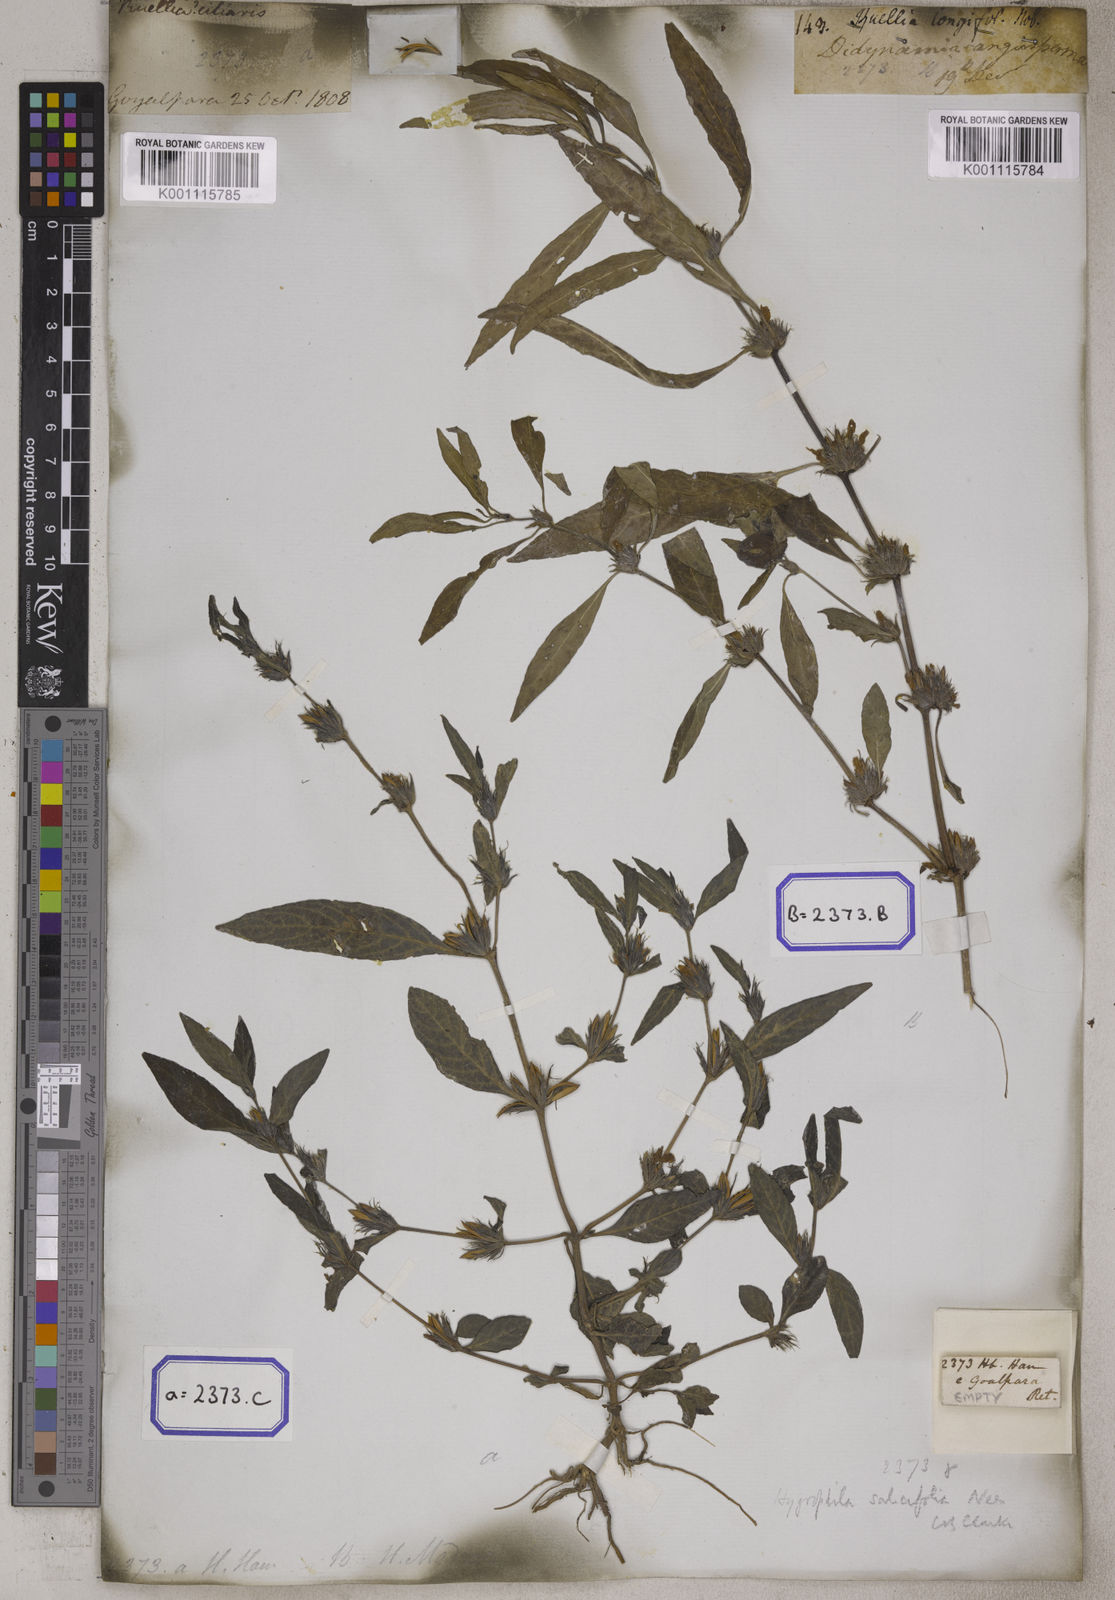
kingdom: Plantae
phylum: Tracheophyta
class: Magnoliopsida
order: Lamiales
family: Acanthaceae
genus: Hygrophila
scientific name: Hygrophila erecta
